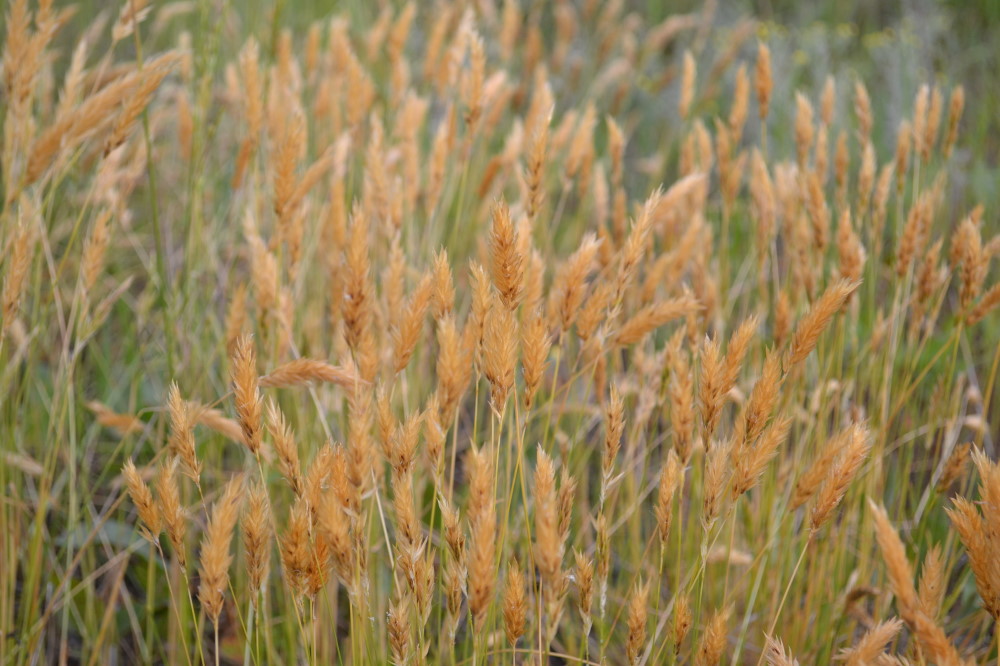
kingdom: Plantae
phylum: Tracheophyta
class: Liliopsida
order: Poales
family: Poaceae
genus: Anthoxanthum
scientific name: Anthoxanthum odoratum
